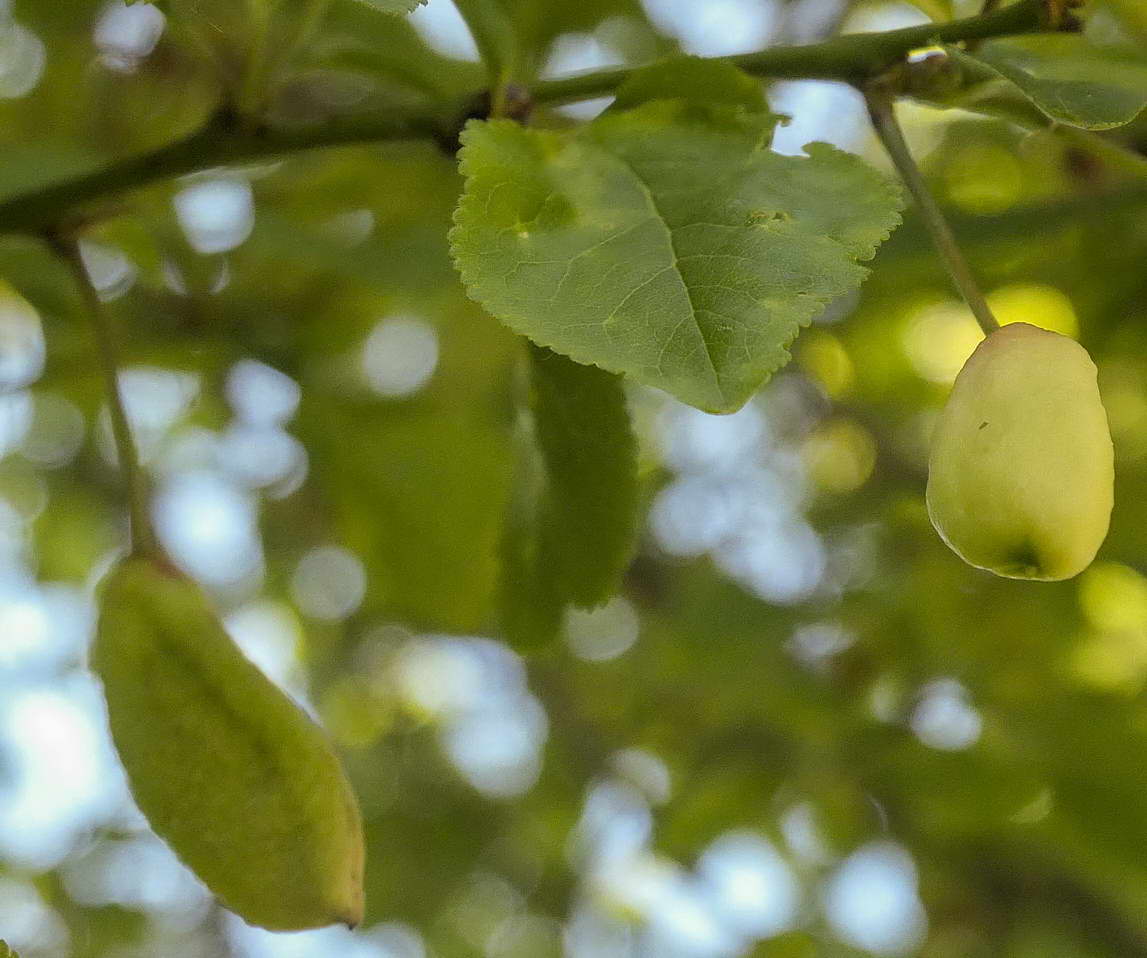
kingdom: Fungi
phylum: Ascomycota
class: Taphrinomycetes
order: Taphrinales
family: Taphrinaceae
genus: Taphrina
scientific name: Taphrina pruni
